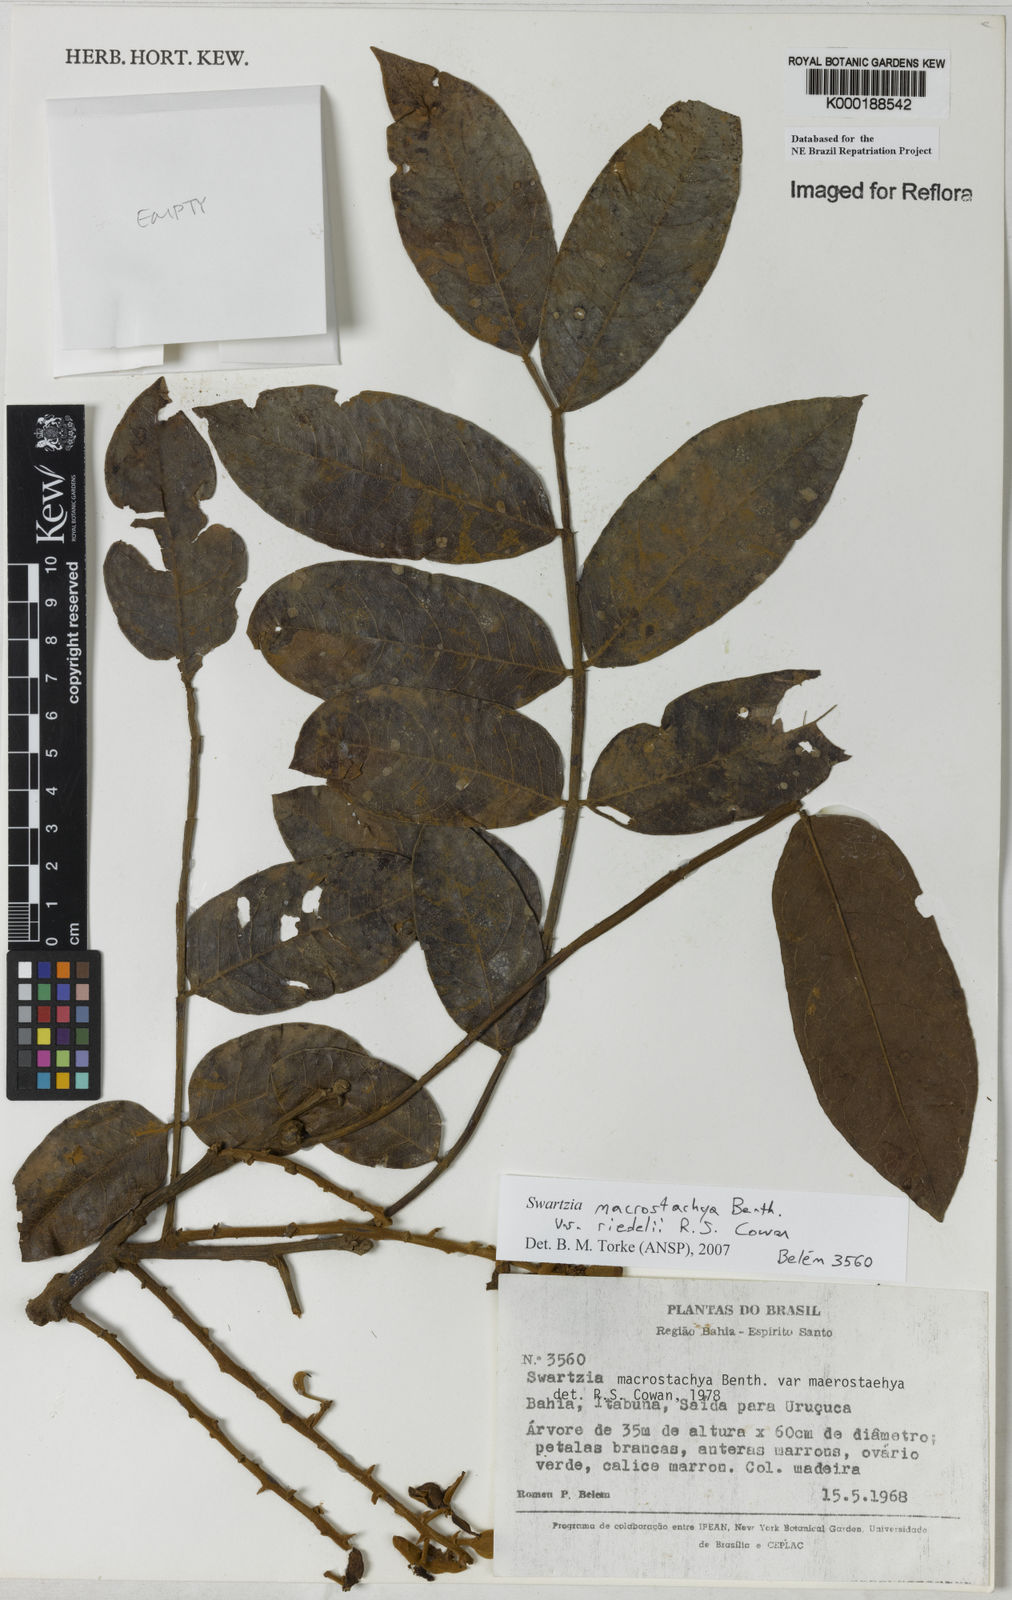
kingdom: Plantae
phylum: Tracheophyta
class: Magnoliopsida
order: Fabales
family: Fabaceae
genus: Swartzia
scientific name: Swartzia
